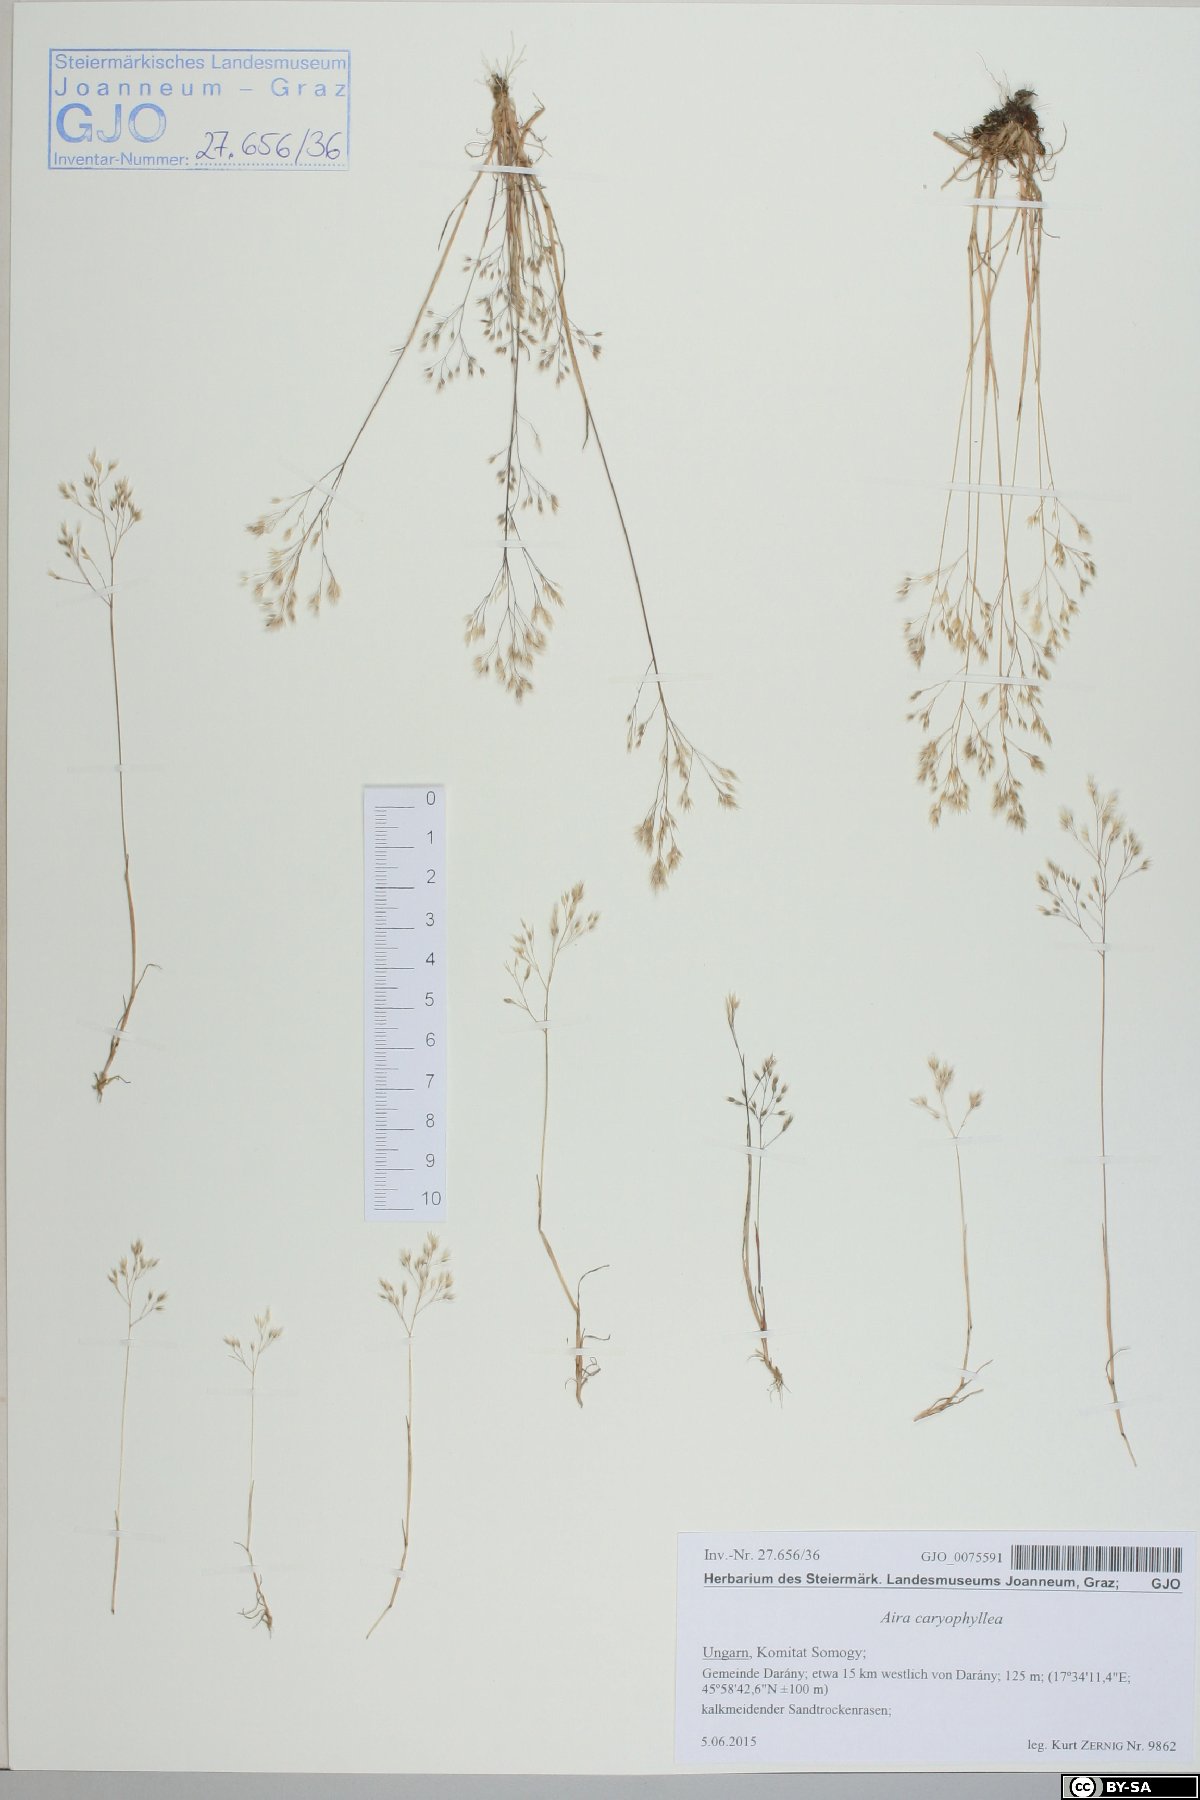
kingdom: Plantae
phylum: Tracheophyta
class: Liliopsida
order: Poales
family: Poaceae
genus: Aira
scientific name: Aira caryophyllea
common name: Silver hairgrass
